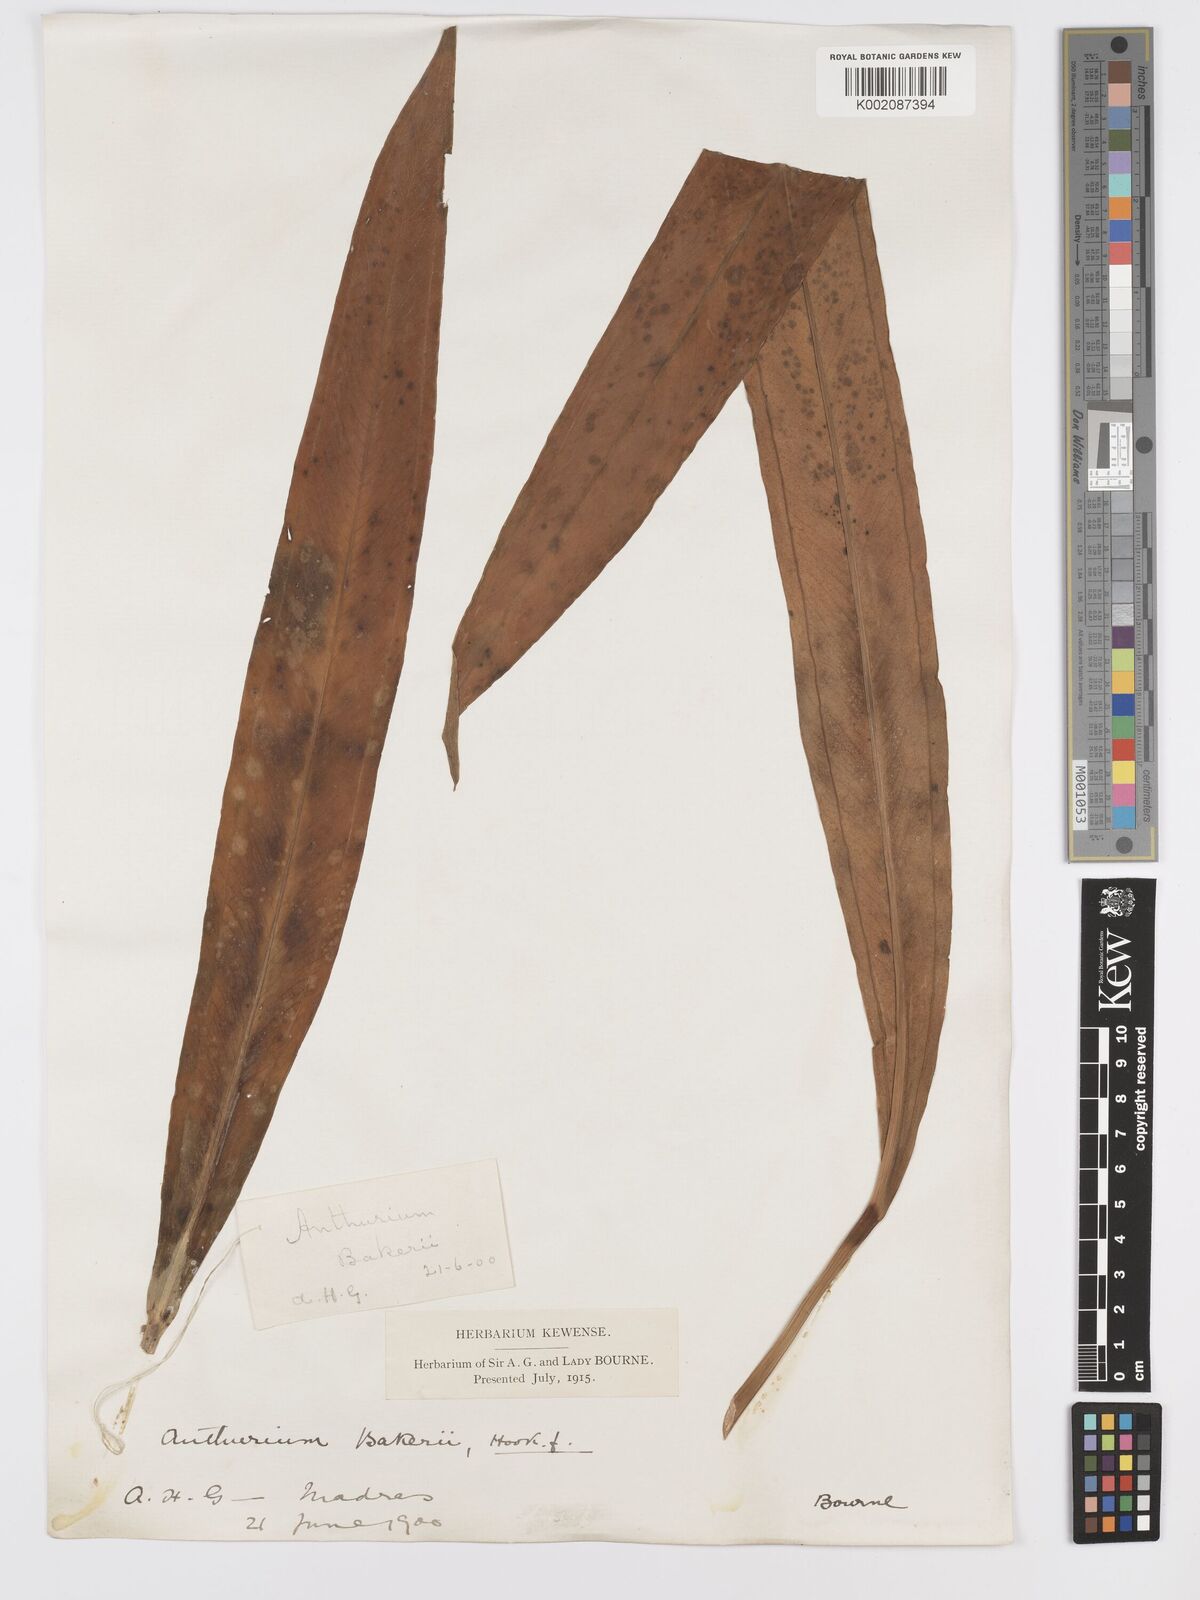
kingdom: Plantae
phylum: Tracheophyta
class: Liliopsida
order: Alismatales
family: Araceae
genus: Anthurium
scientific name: Anthurium bakeri
